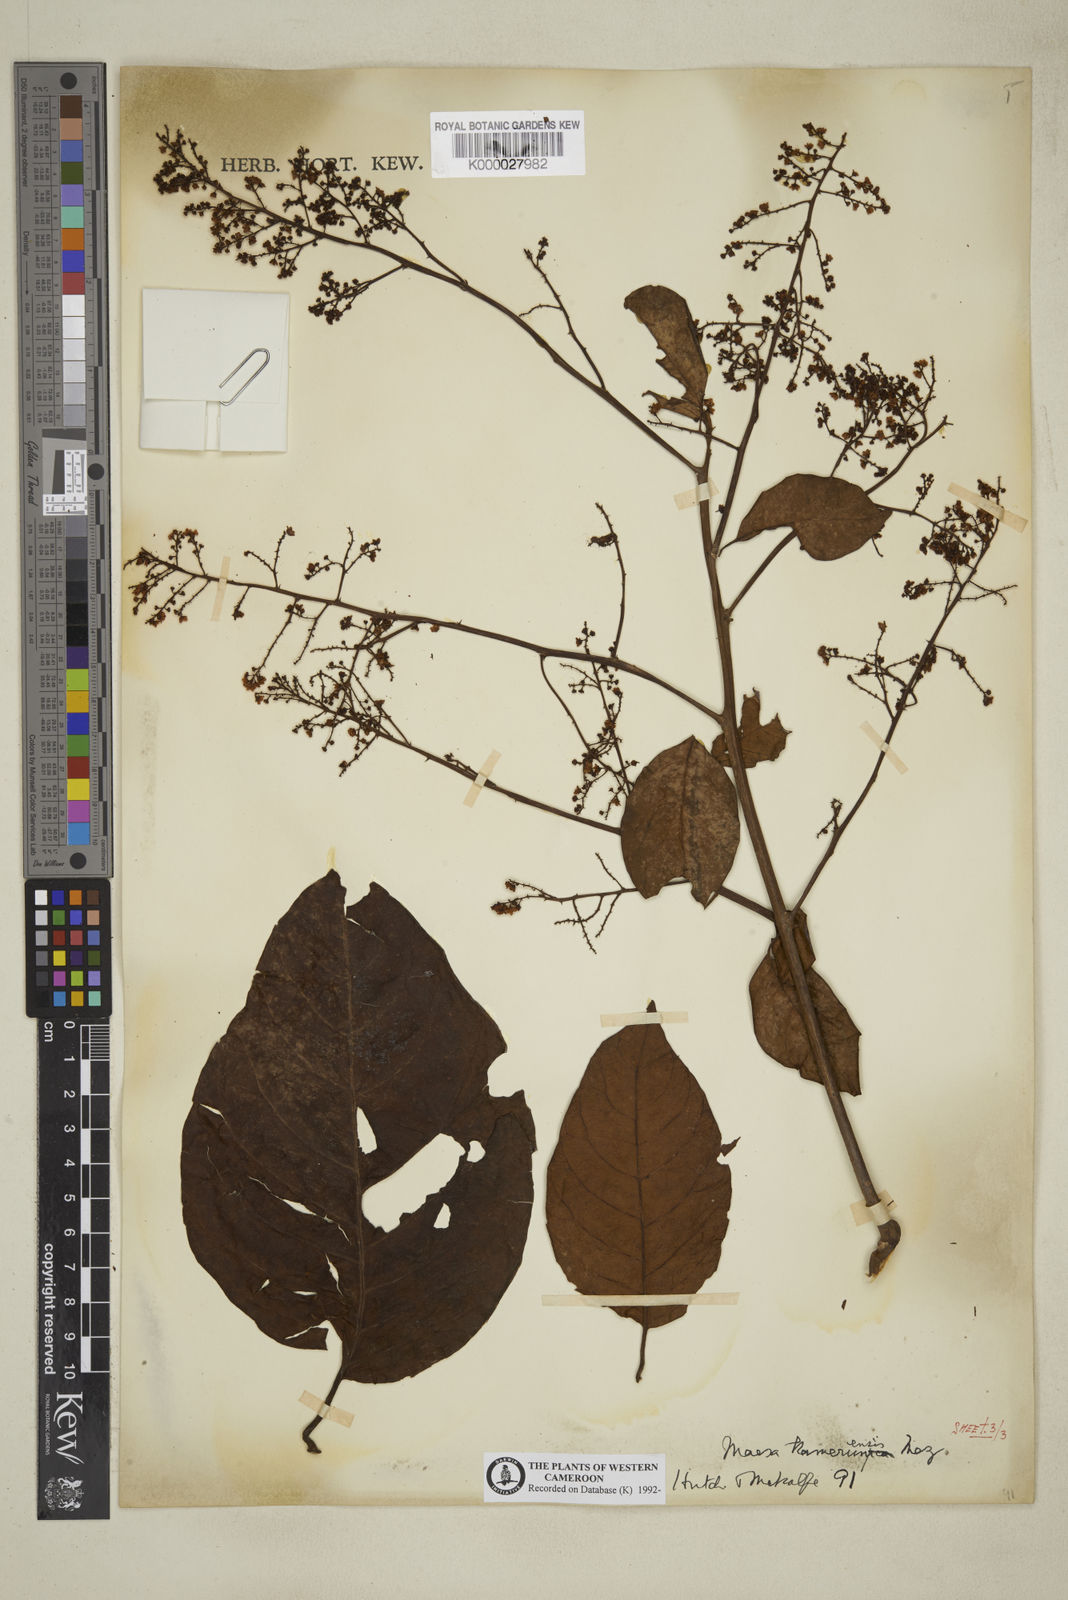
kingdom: Plantae
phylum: Tracheophyta
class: Magnoliopsida
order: Ericales
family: Primulaceae
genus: Maesa
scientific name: Maesa kamerunensis
